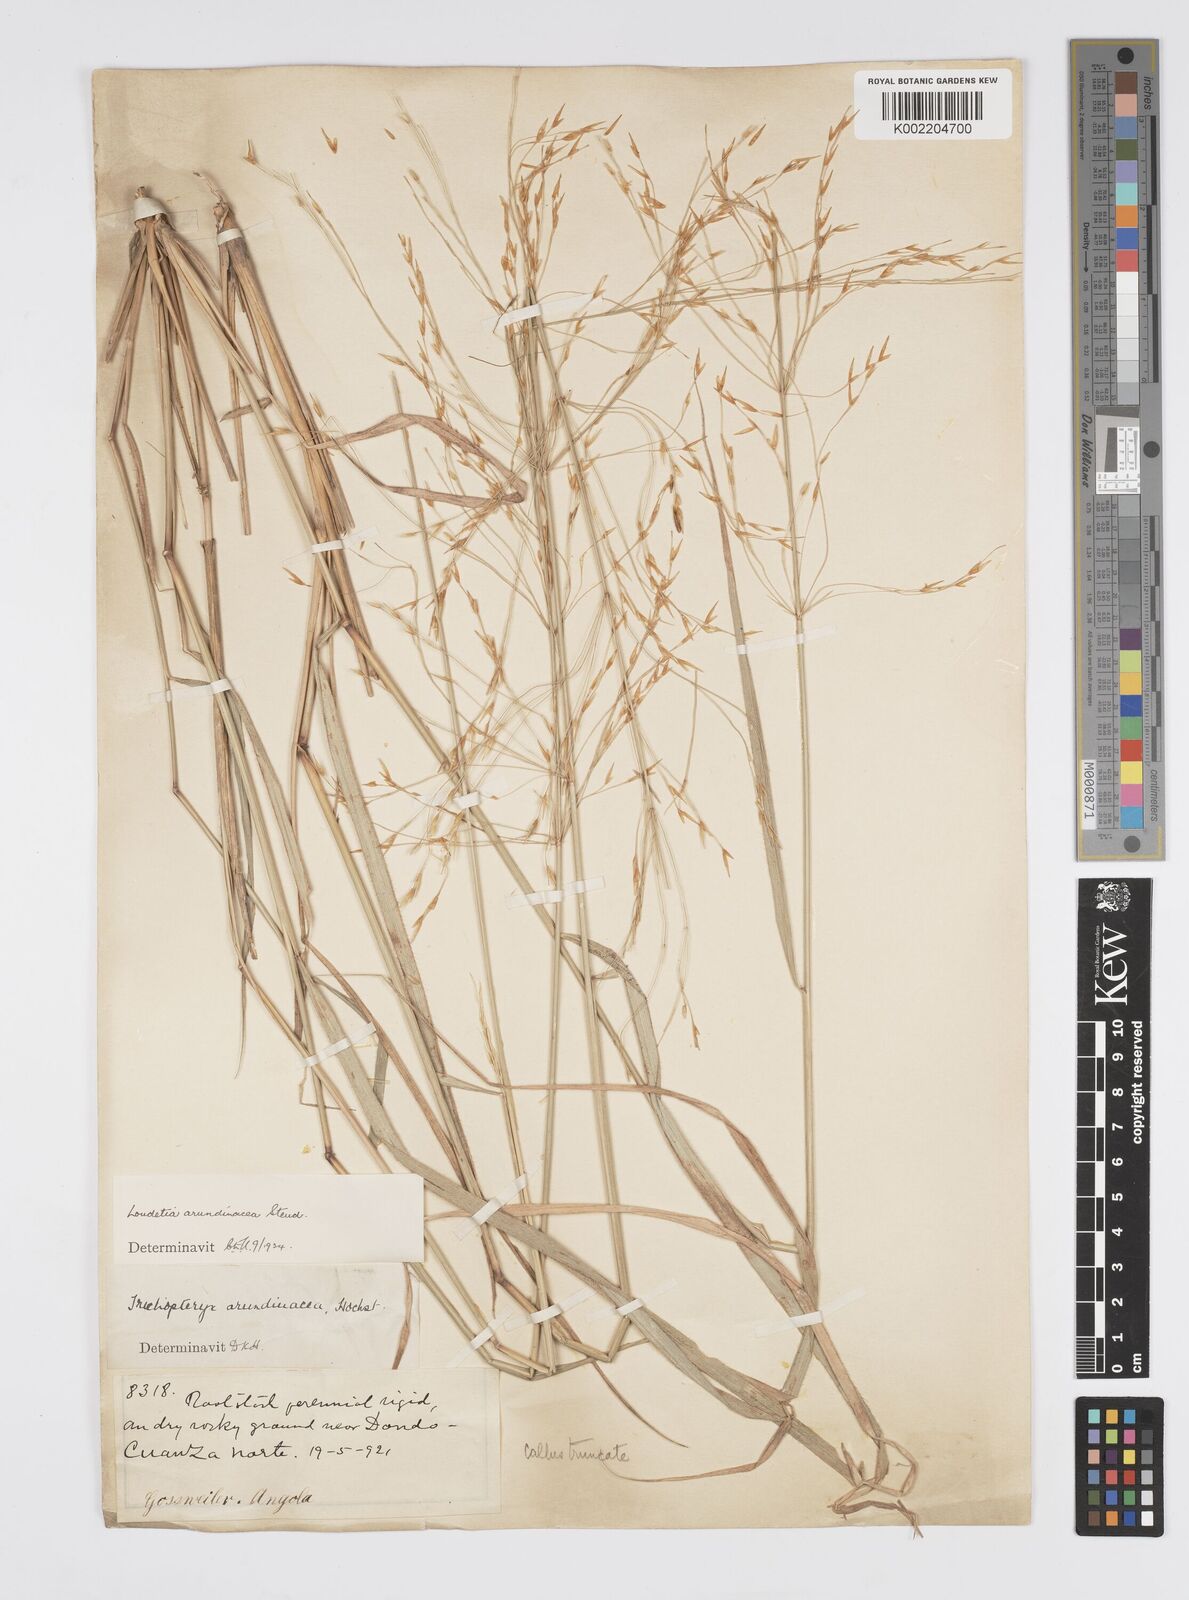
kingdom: Plantae
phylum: Tracheophyta
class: Liliopsida
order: Poales
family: Poaceae
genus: Loudetia
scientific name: Loudetia arundinacea
